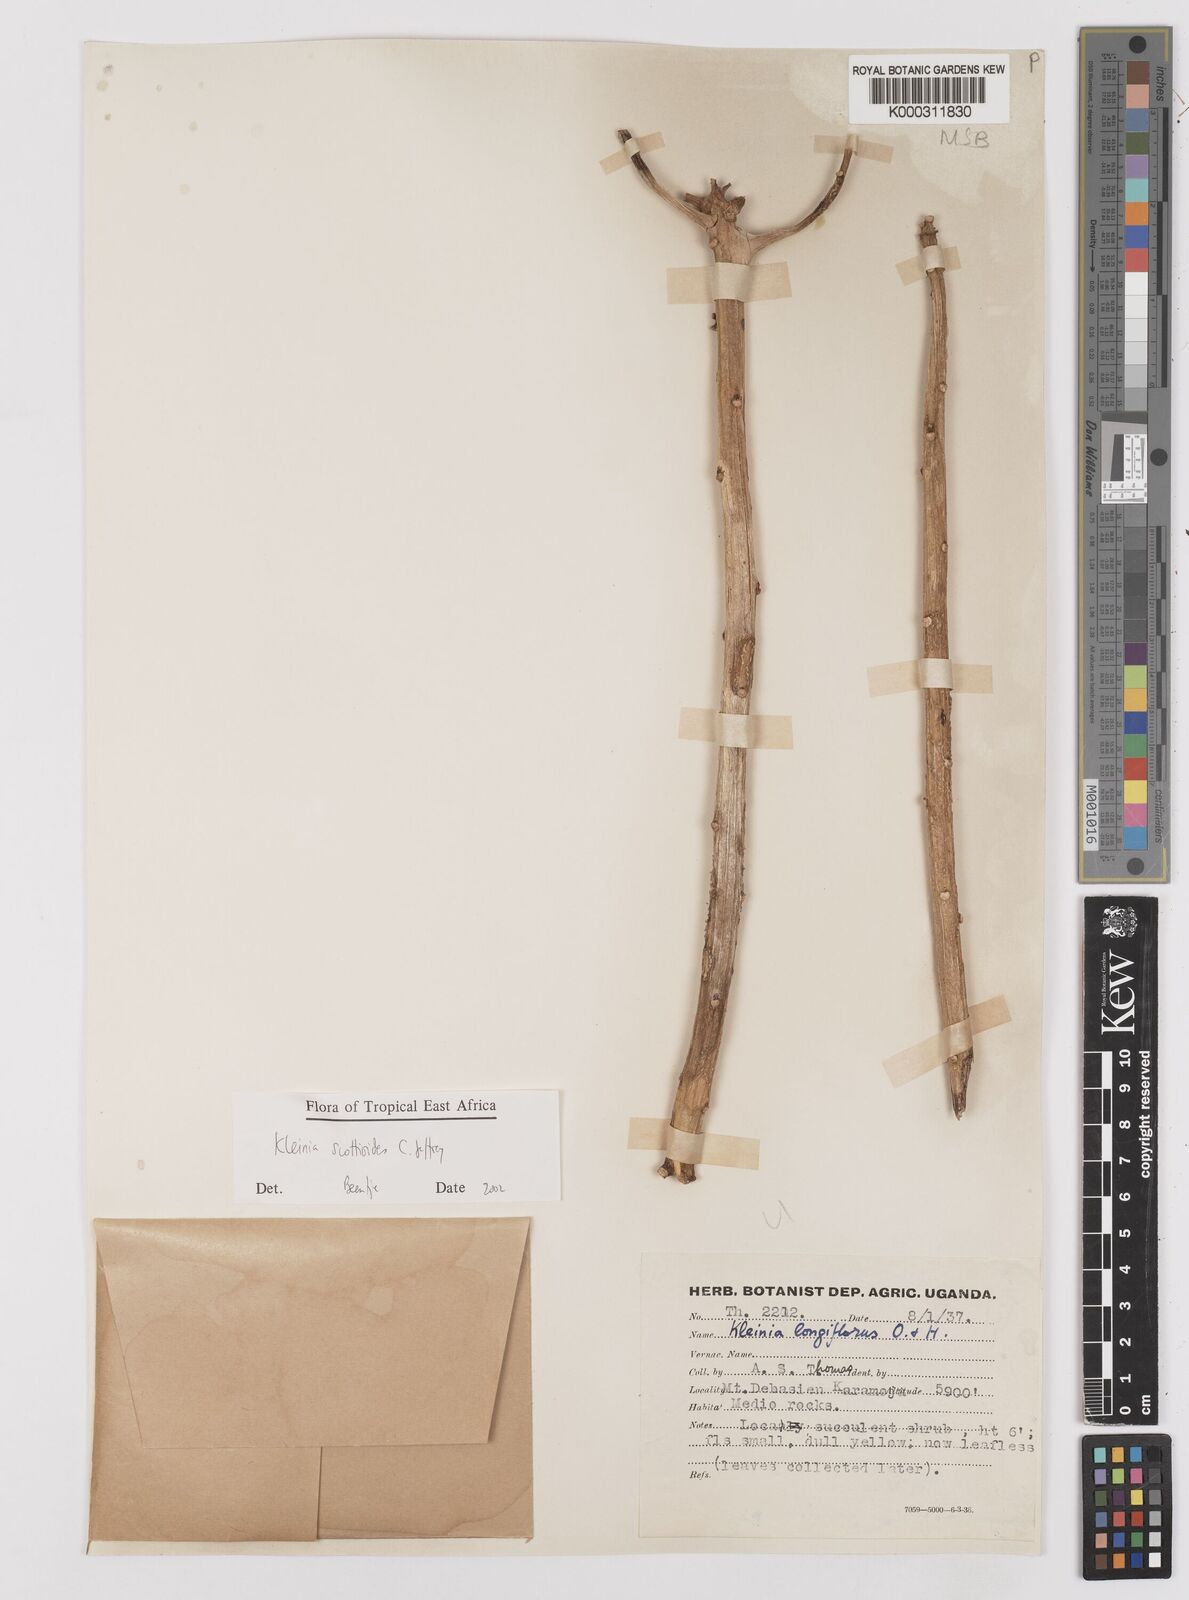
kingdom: Plantae
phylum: Tracheophyta
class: Magnoliopsida
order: Asterales
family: Asteraceae
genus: Curio
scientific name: Curio avasimontanus
